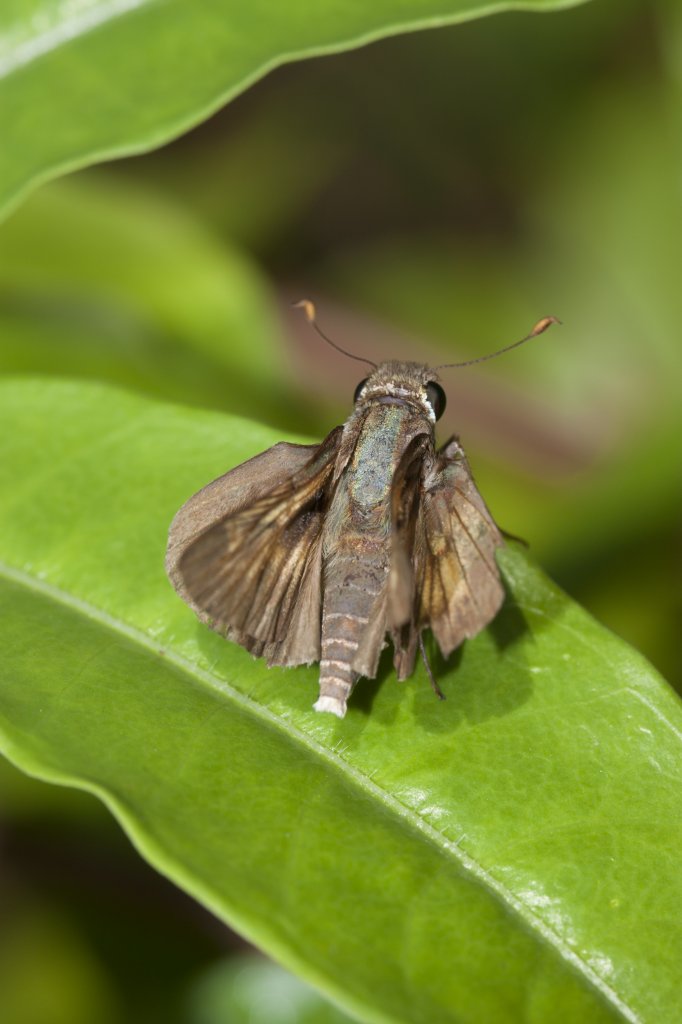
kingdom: Animalia
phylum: Arthropoda
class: Insecta
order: Lepidoptera
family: Hesperiidae
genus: Wallengrenia
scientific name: Wallengrenia otho
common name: Southern Broken-Dash
